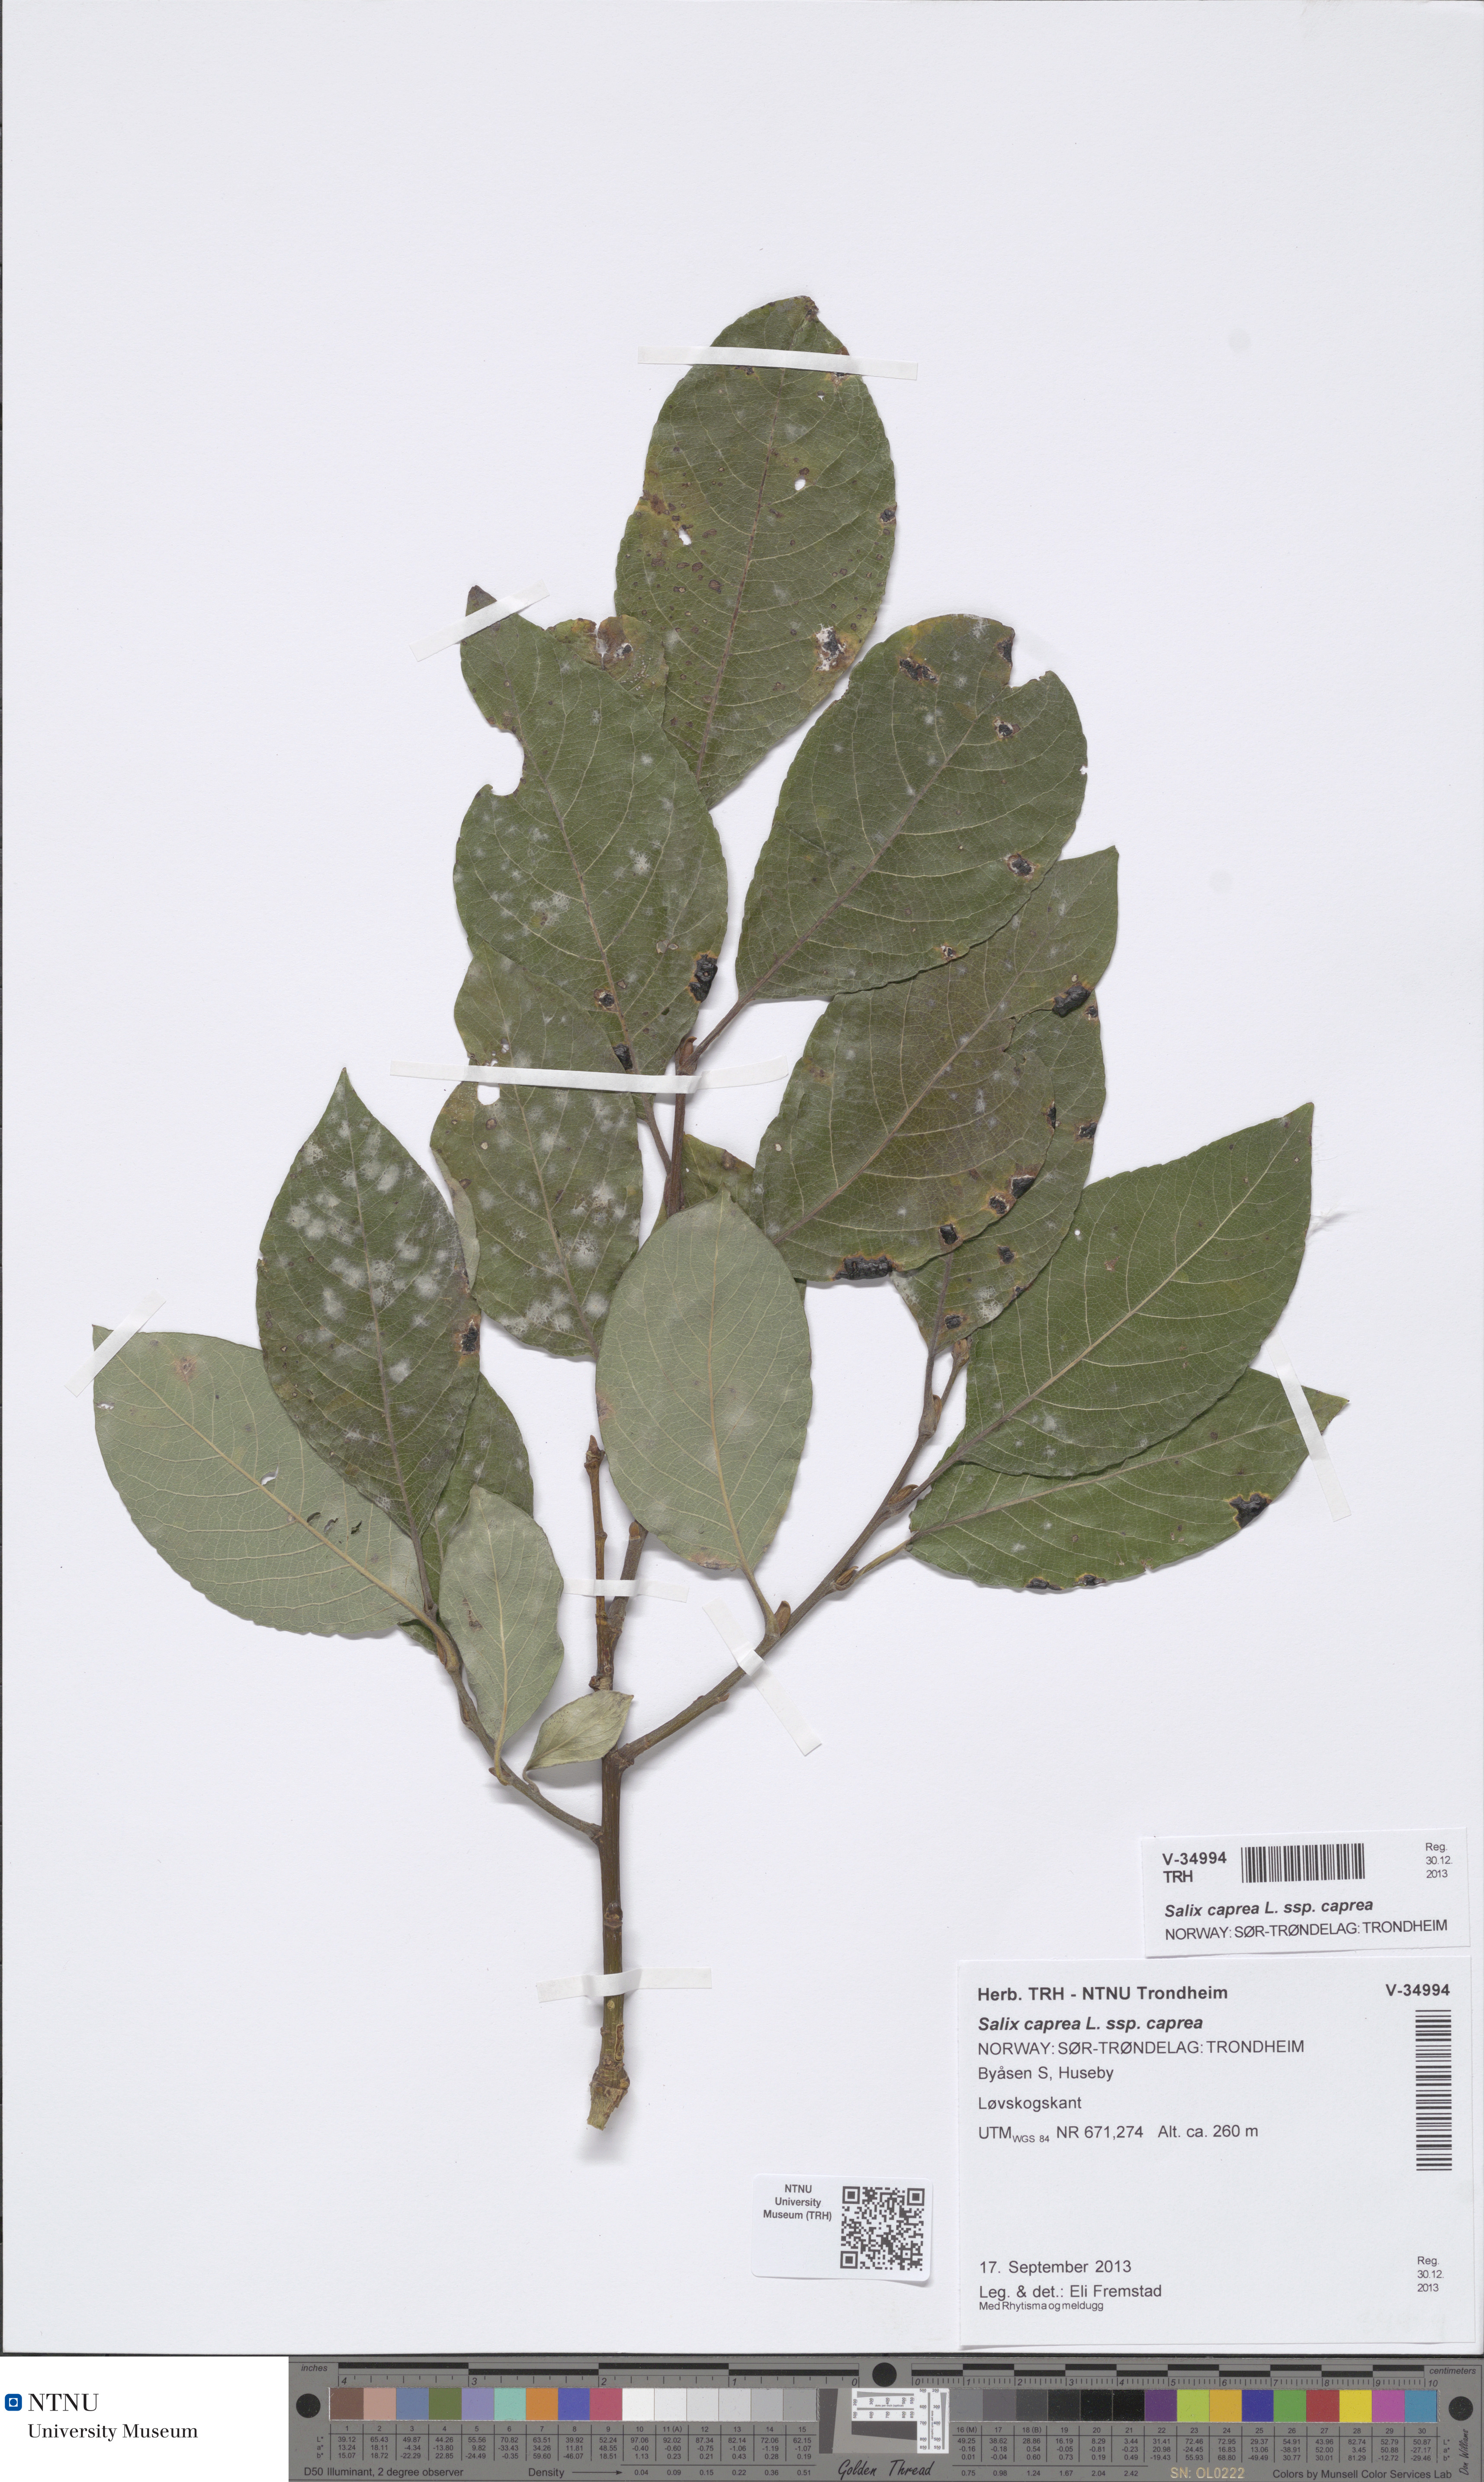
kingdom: Plantae
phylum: Tracheophyta
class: Magnoliopsida
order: Malpighiales
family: Salicaceae
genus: Salix
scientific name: Salix caprea
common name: Goat willow
